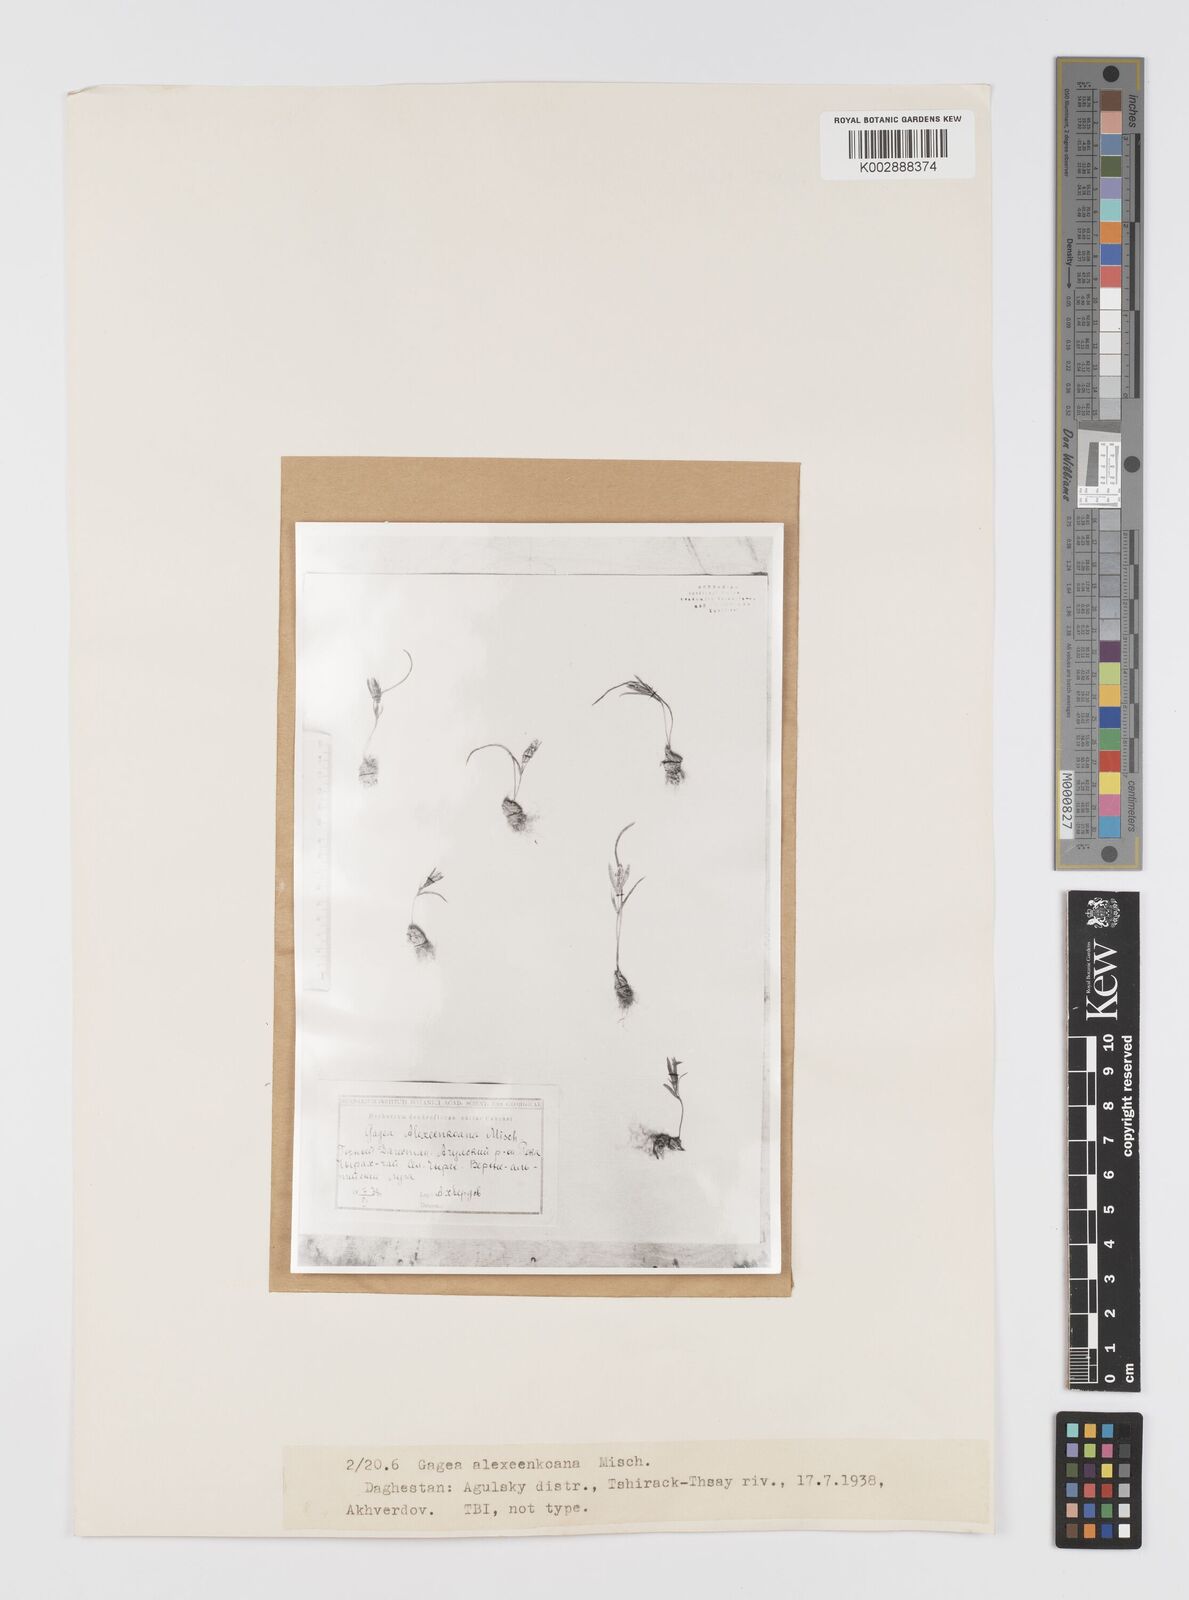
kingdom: Plantae
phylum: Tracheophyta
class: Liliopsida
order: Liliales
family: Liliaceae
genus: Gagea
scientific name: Gagea alexeenkoana
